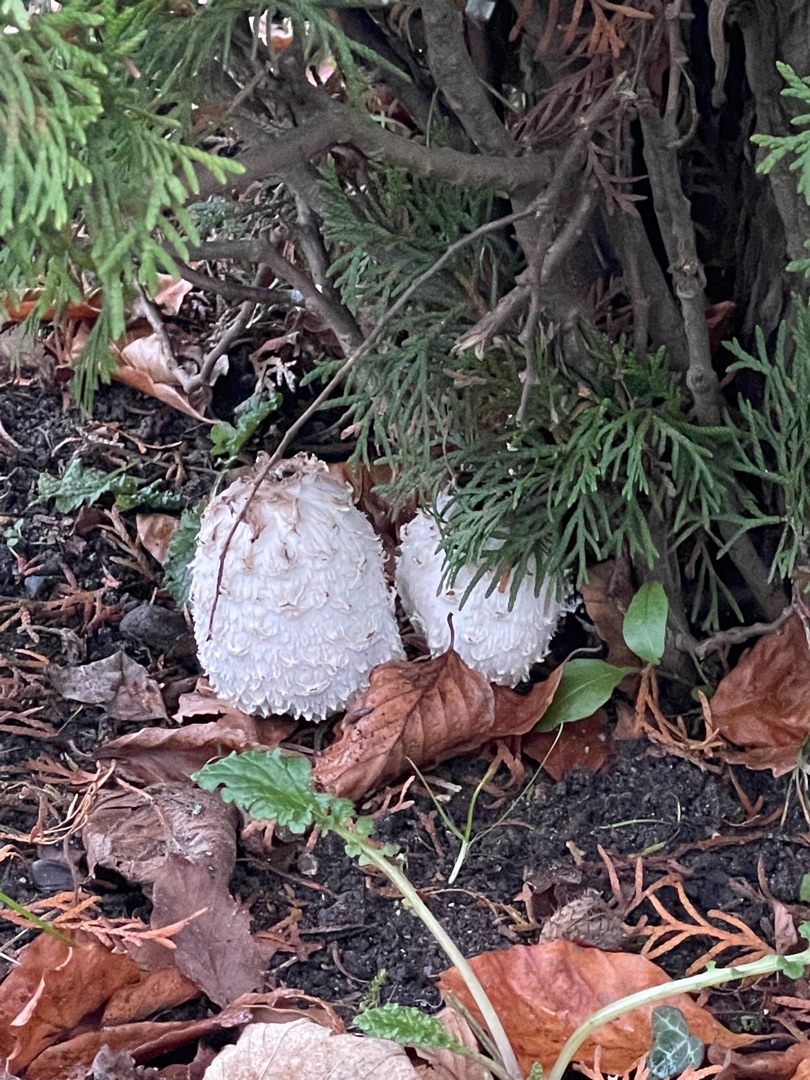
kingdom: Fungi
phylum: Basidiomycota
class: Agaricomycetes
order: Agaricales
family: Agaricaceae
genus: Coprinus
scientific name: Coprinus comatus
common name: Stor parykhat
